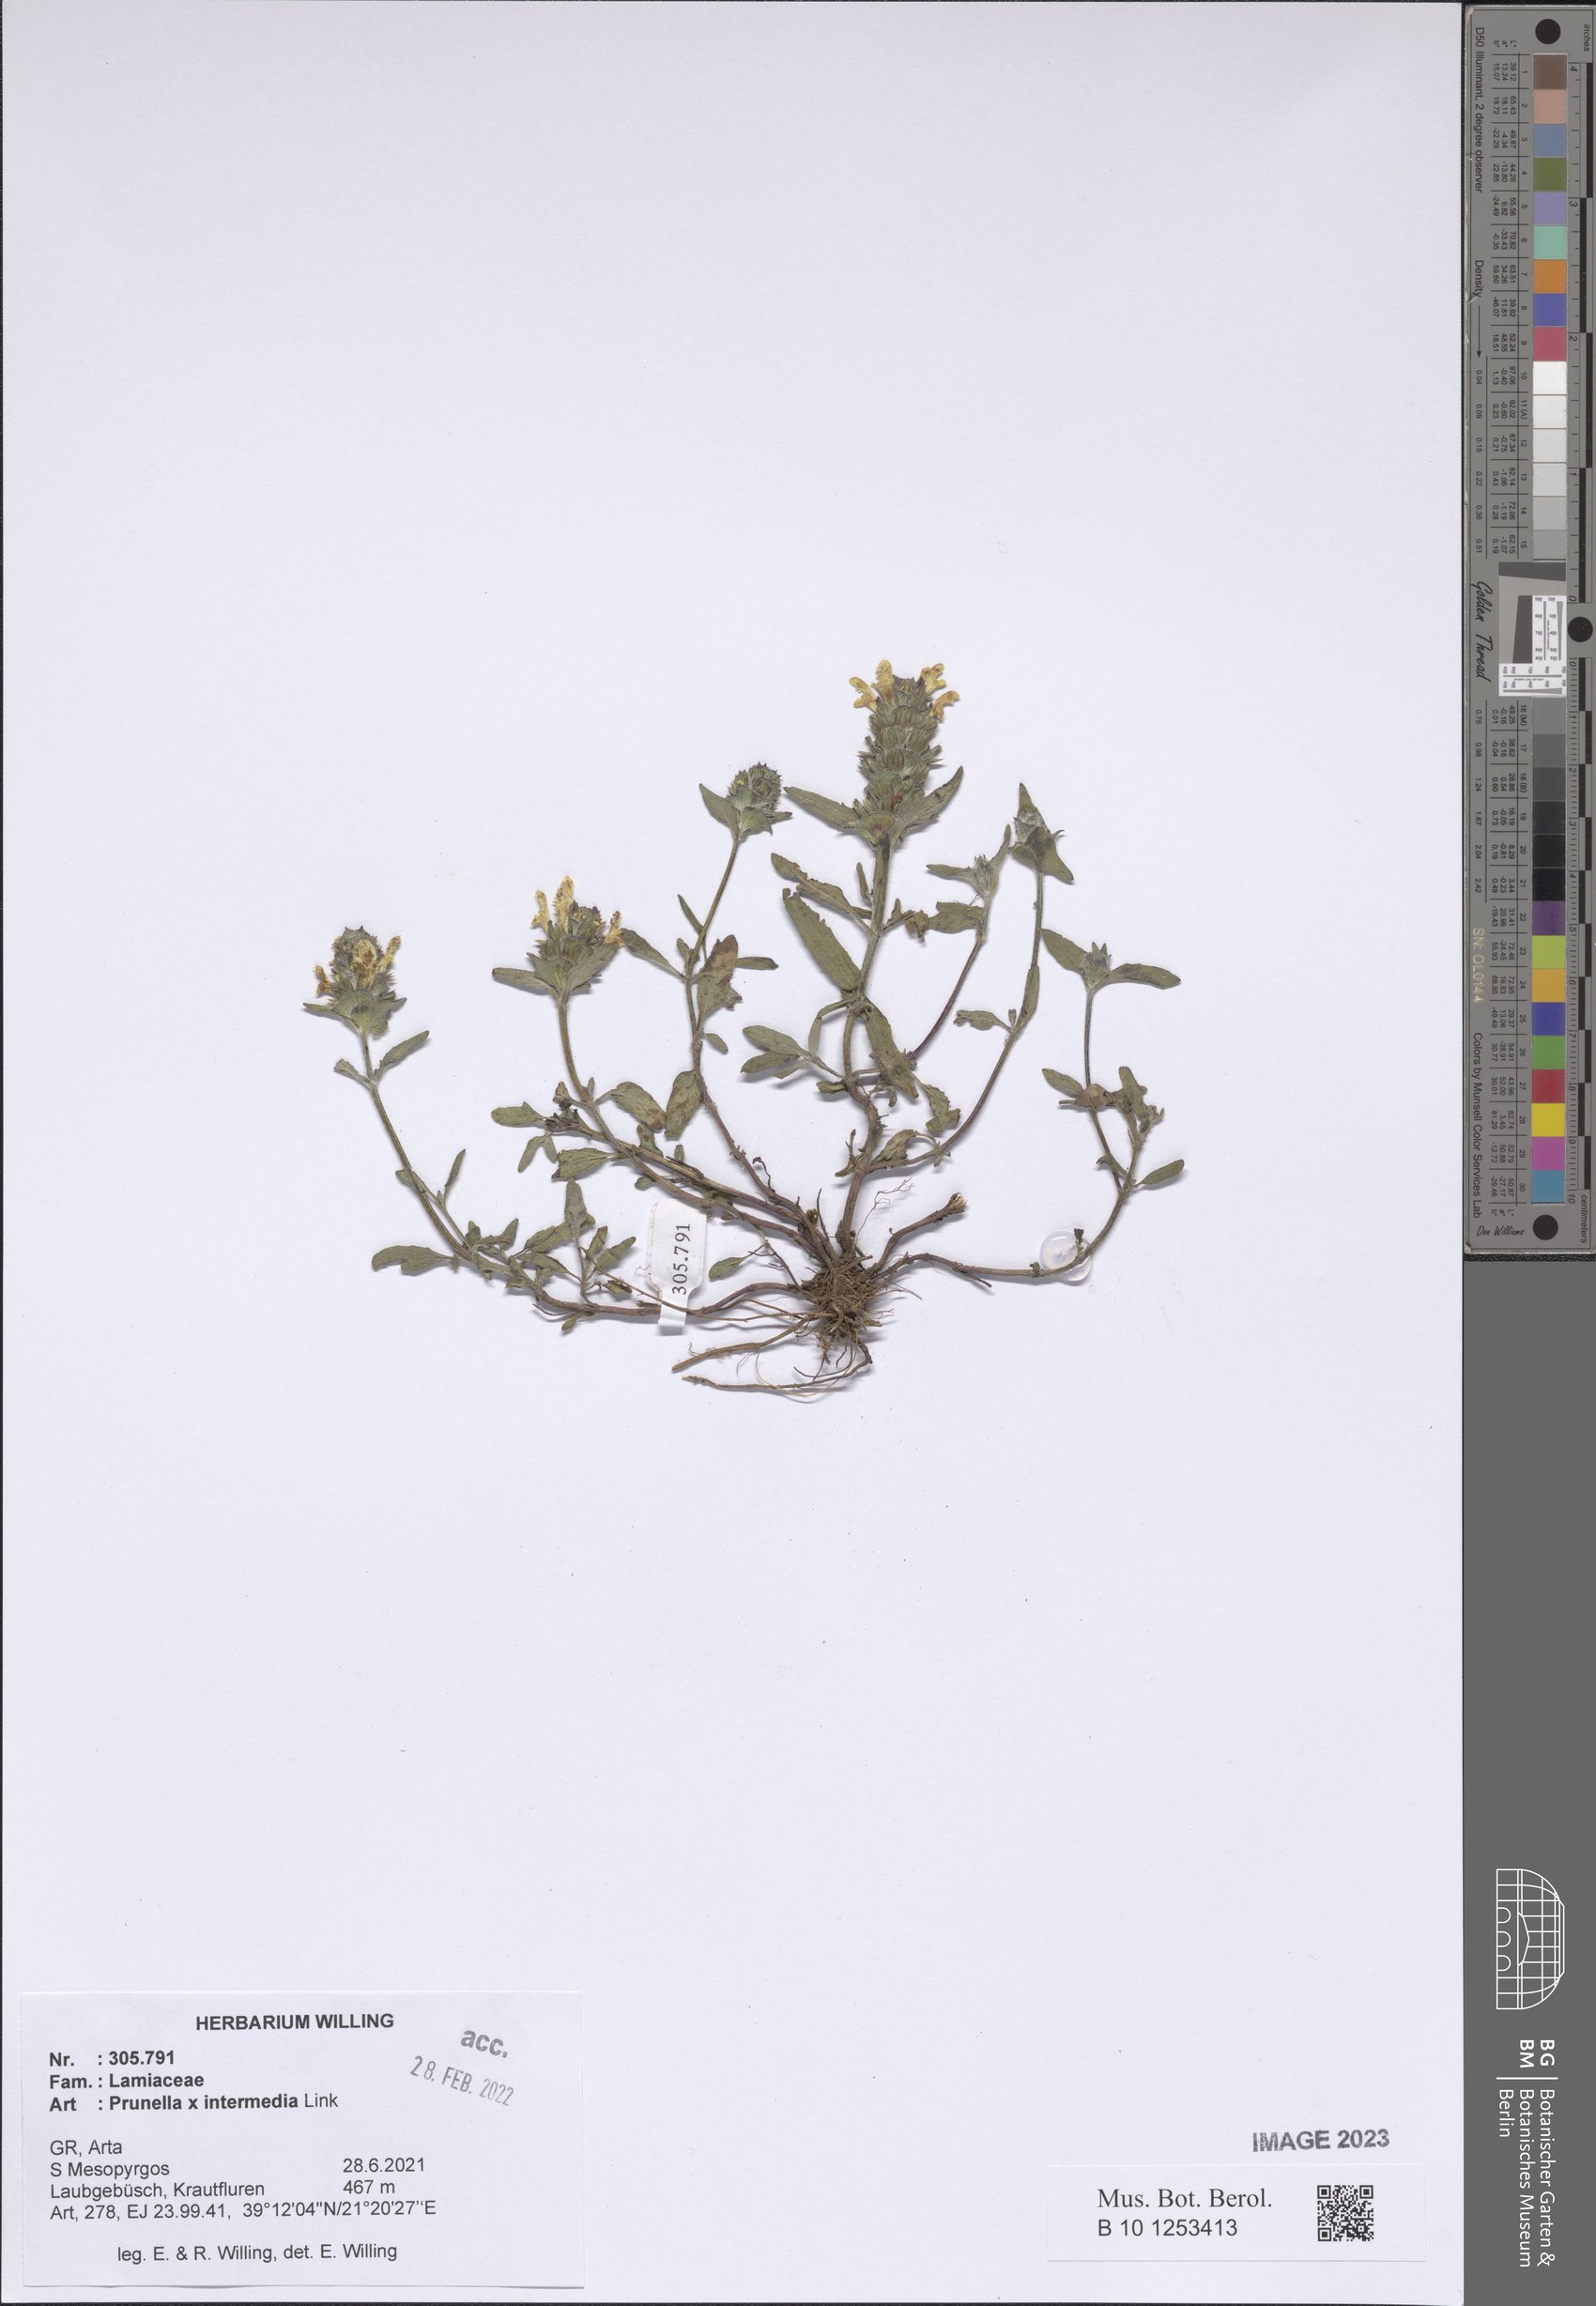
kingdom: Plantae
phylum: Tracheophyta
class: Magnoliopsida
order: Lamiales
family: Lamiaceae
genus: Prunella
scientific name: Prunella
